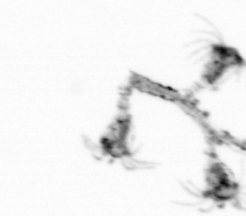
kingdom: Animalia
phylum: Cnidaria
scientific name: Cnidaria
